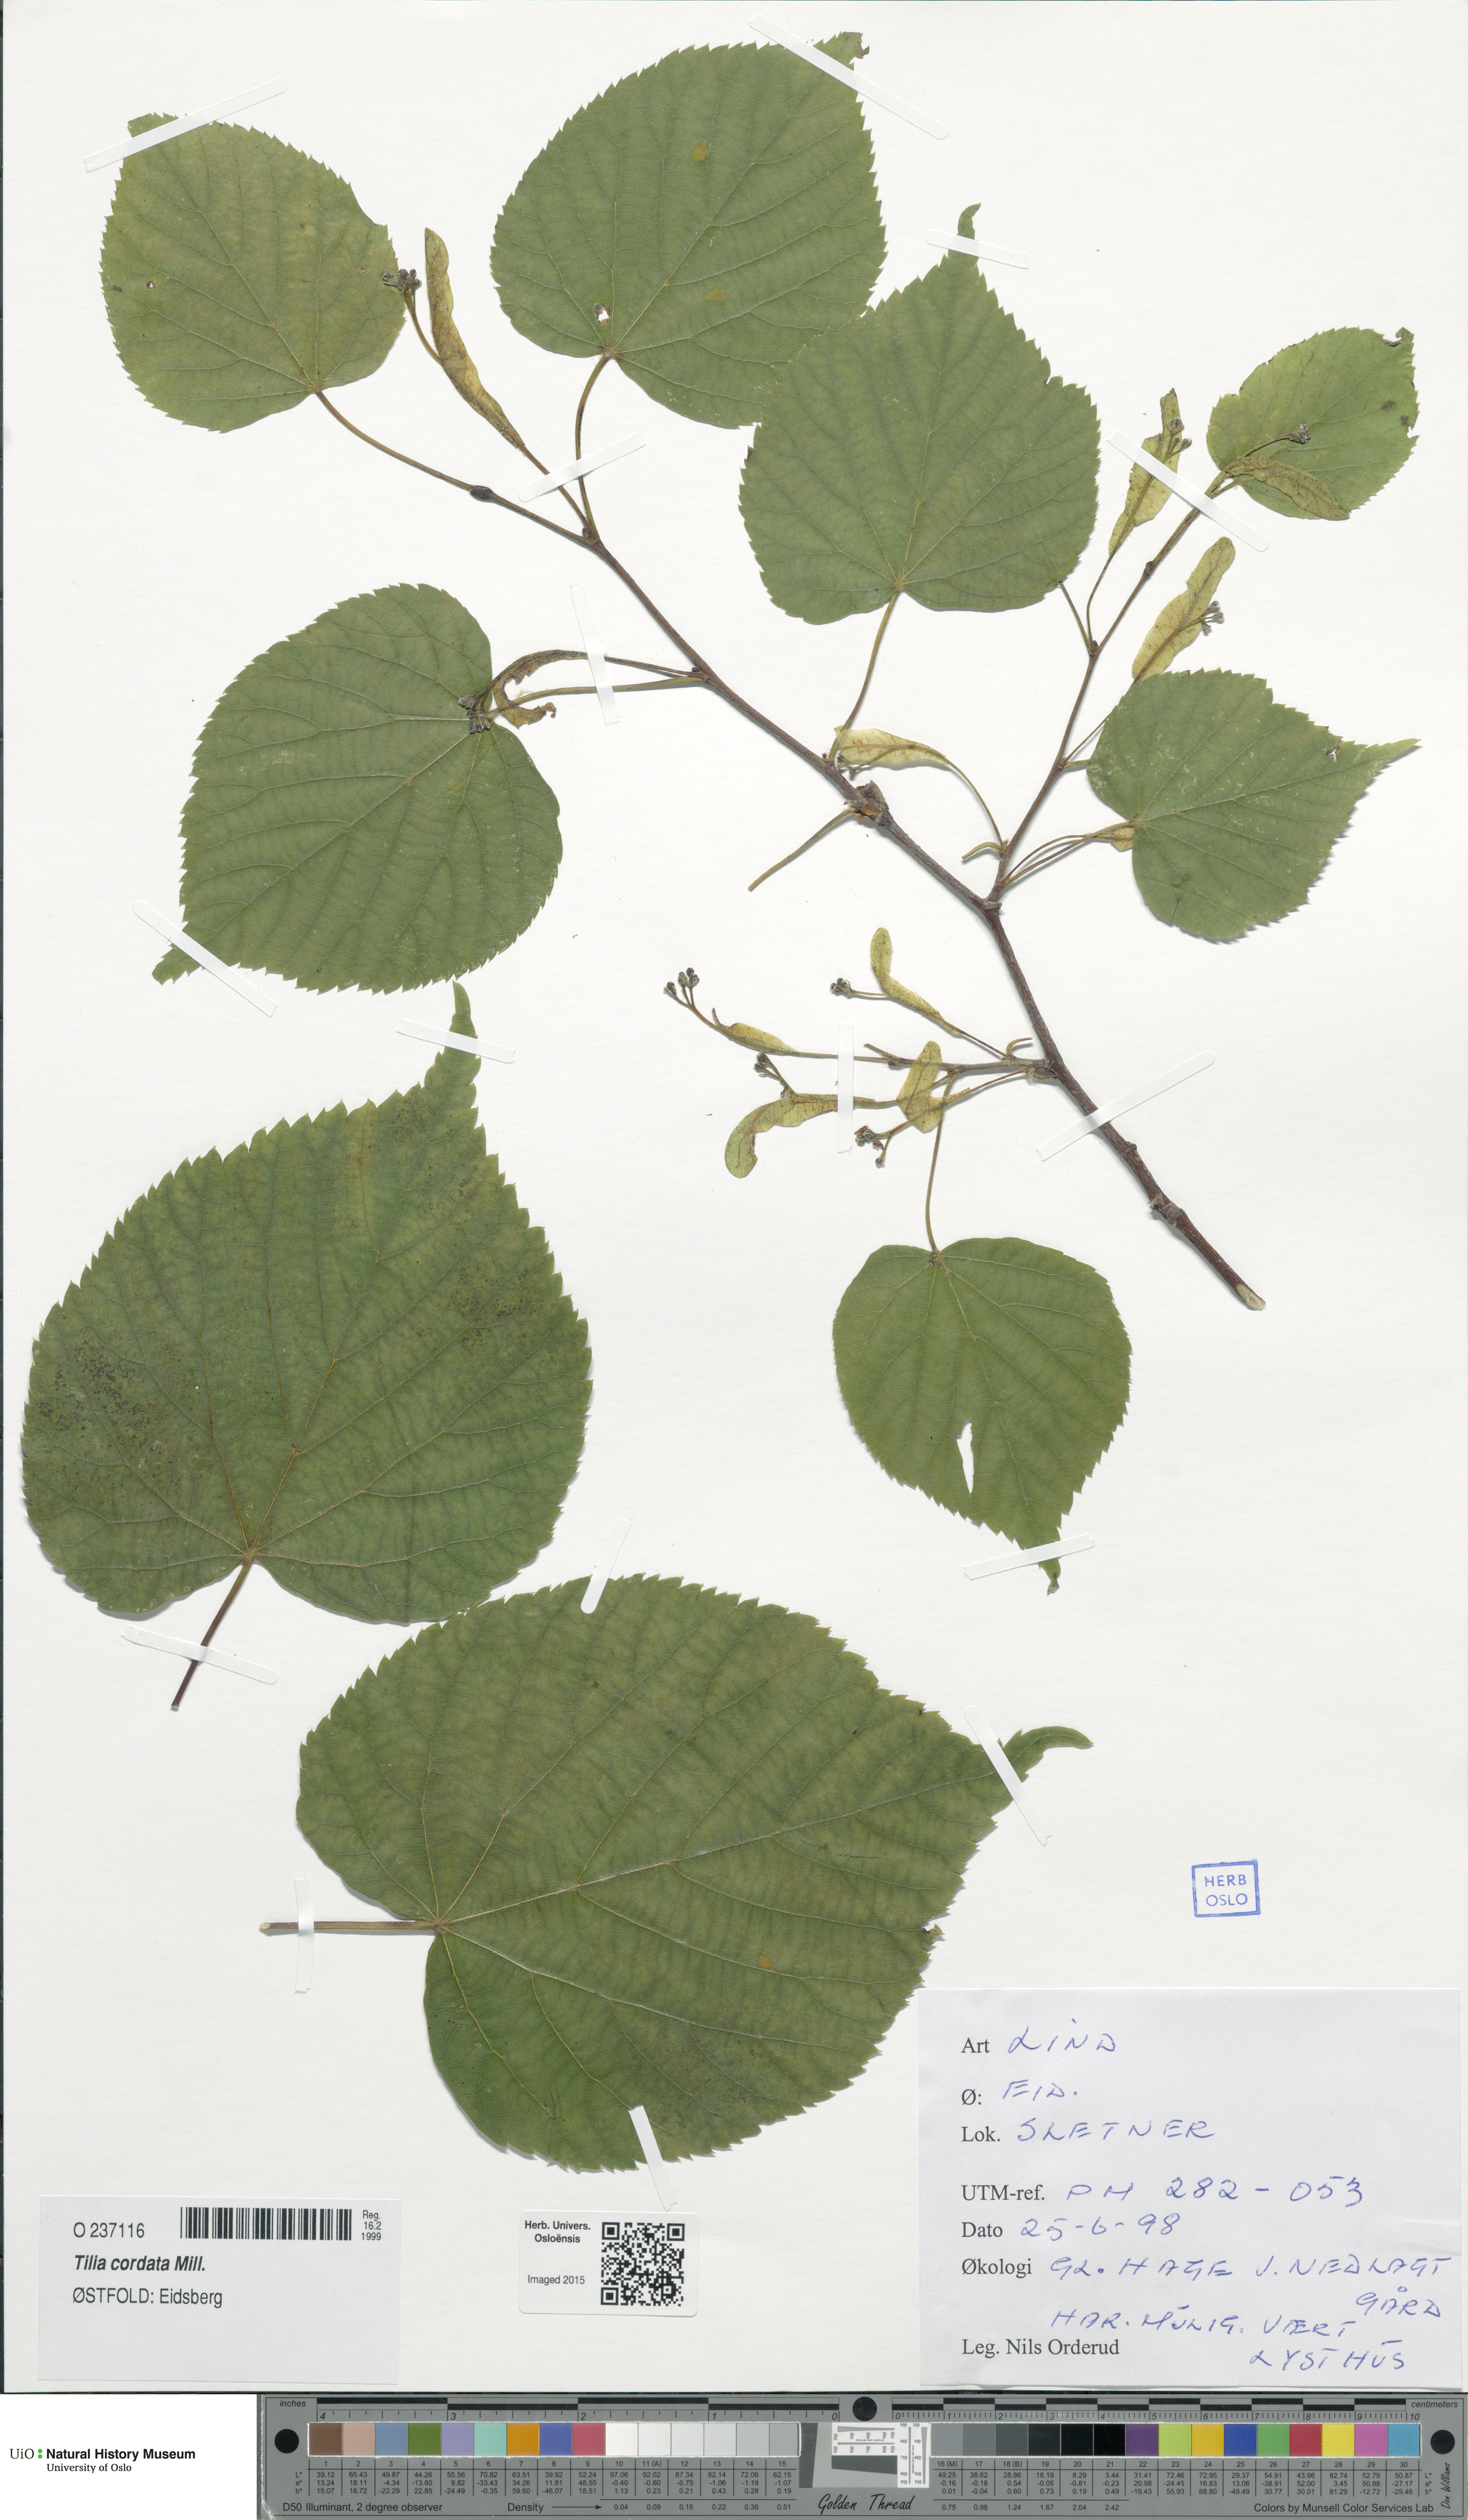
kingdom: Plantae
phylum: Tracheophyta
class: Magnoliopsida
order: Malvales
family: Malvaceae
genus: Tilia
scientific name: Tilia cordata
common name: Small-leaved lime
